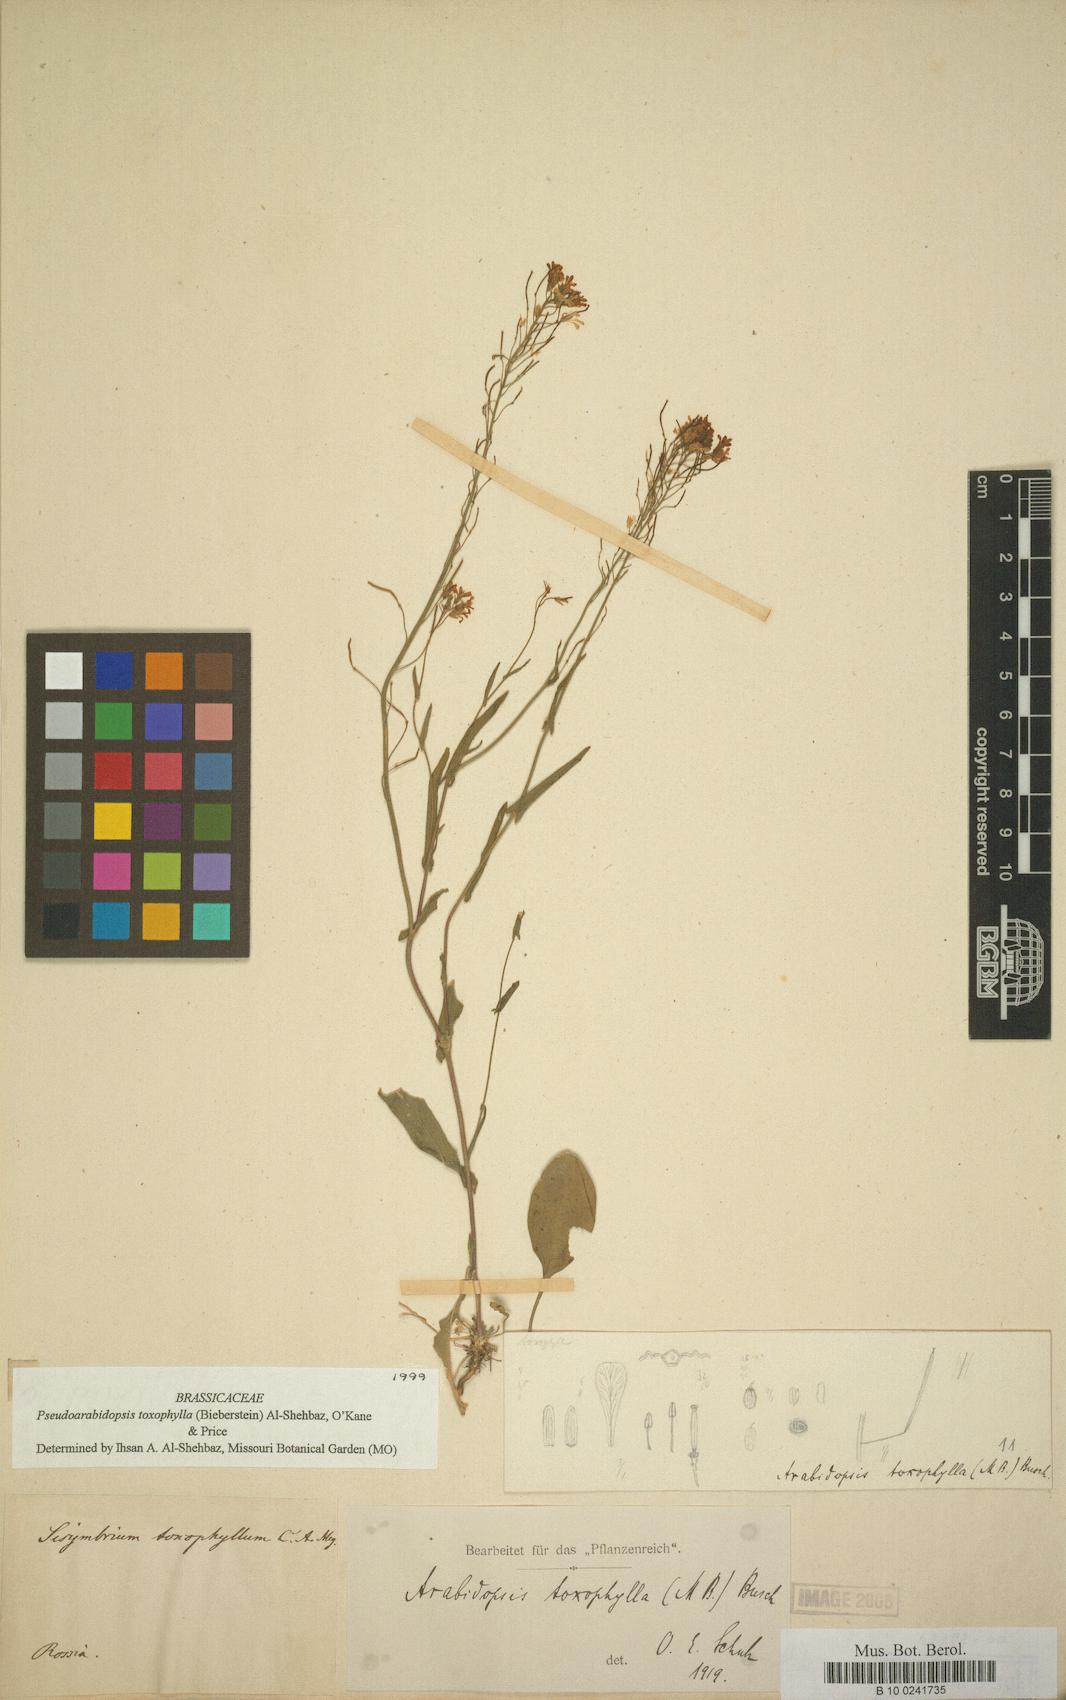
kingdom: Plantae
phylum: Tracheophyta
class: Magnoliopsida
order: Brassicales
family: Brassicaceae
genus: Pseudocamelina
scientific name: Pseudocamelina
